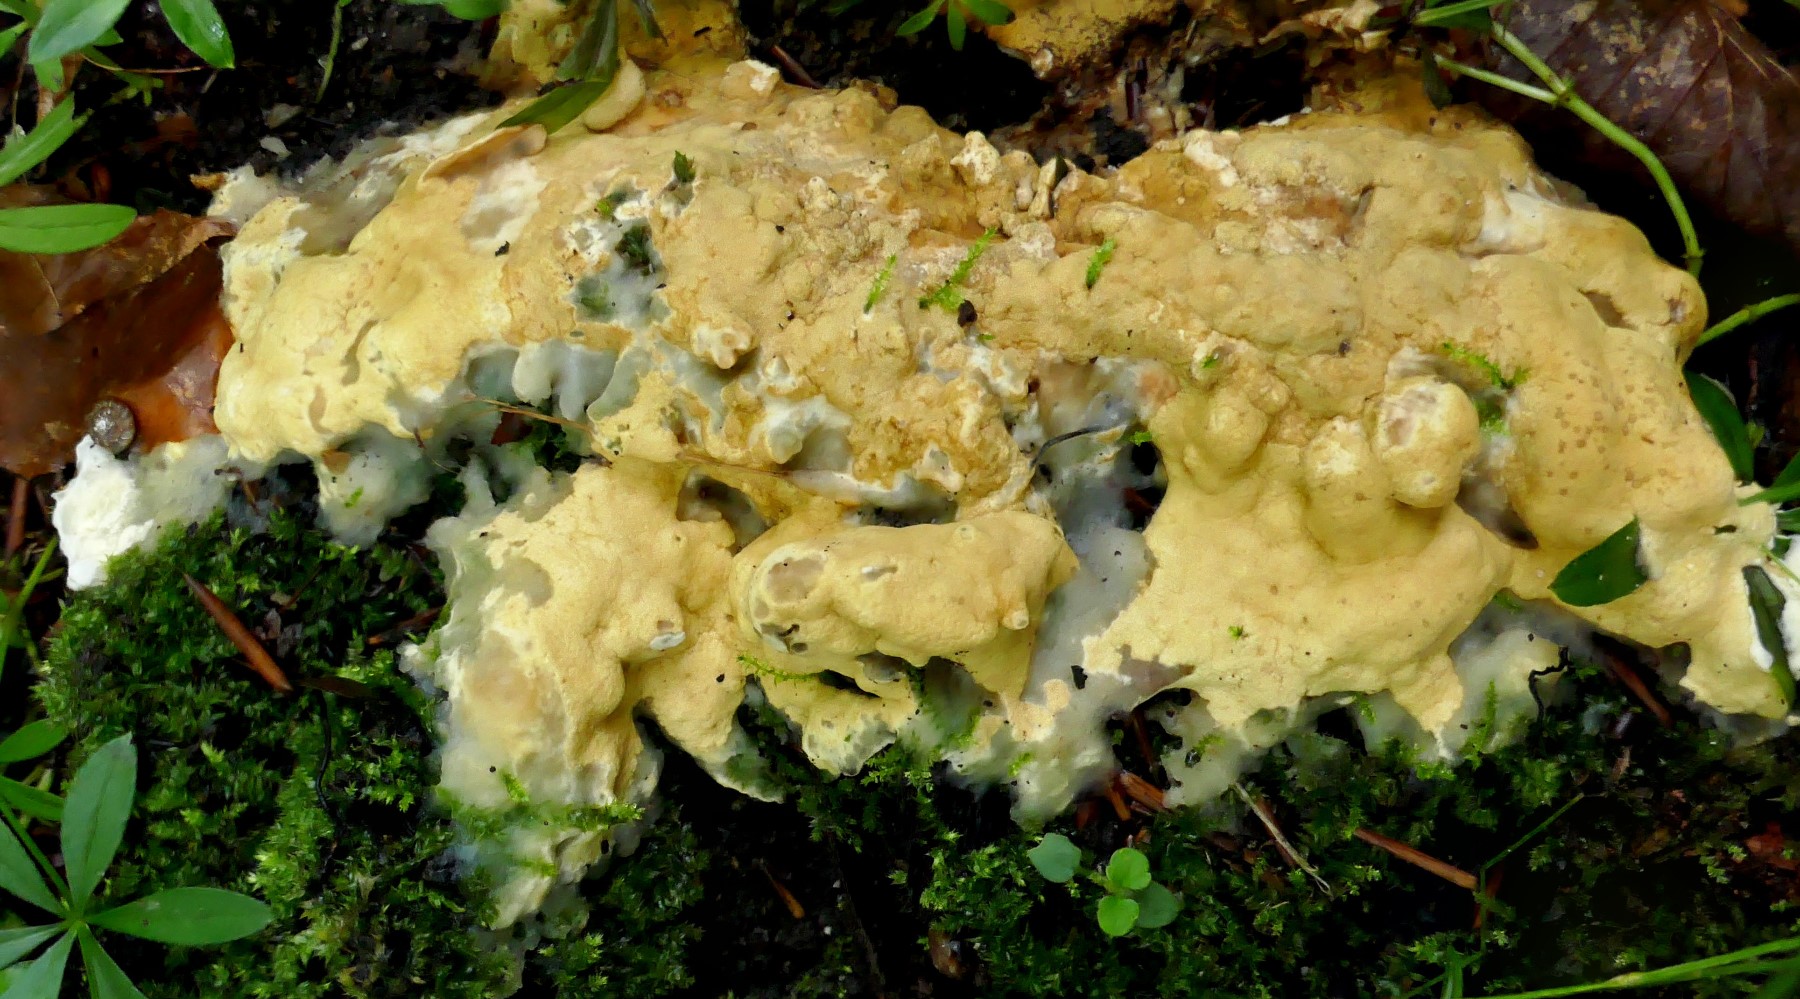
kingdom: Fungi
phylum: Ascomycota
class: Sordariomycetes
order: Hypocreales
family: Hypocreaceae
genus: Trichoderma
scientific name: Trichoderma citrinum
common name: udbredt kødkerne
